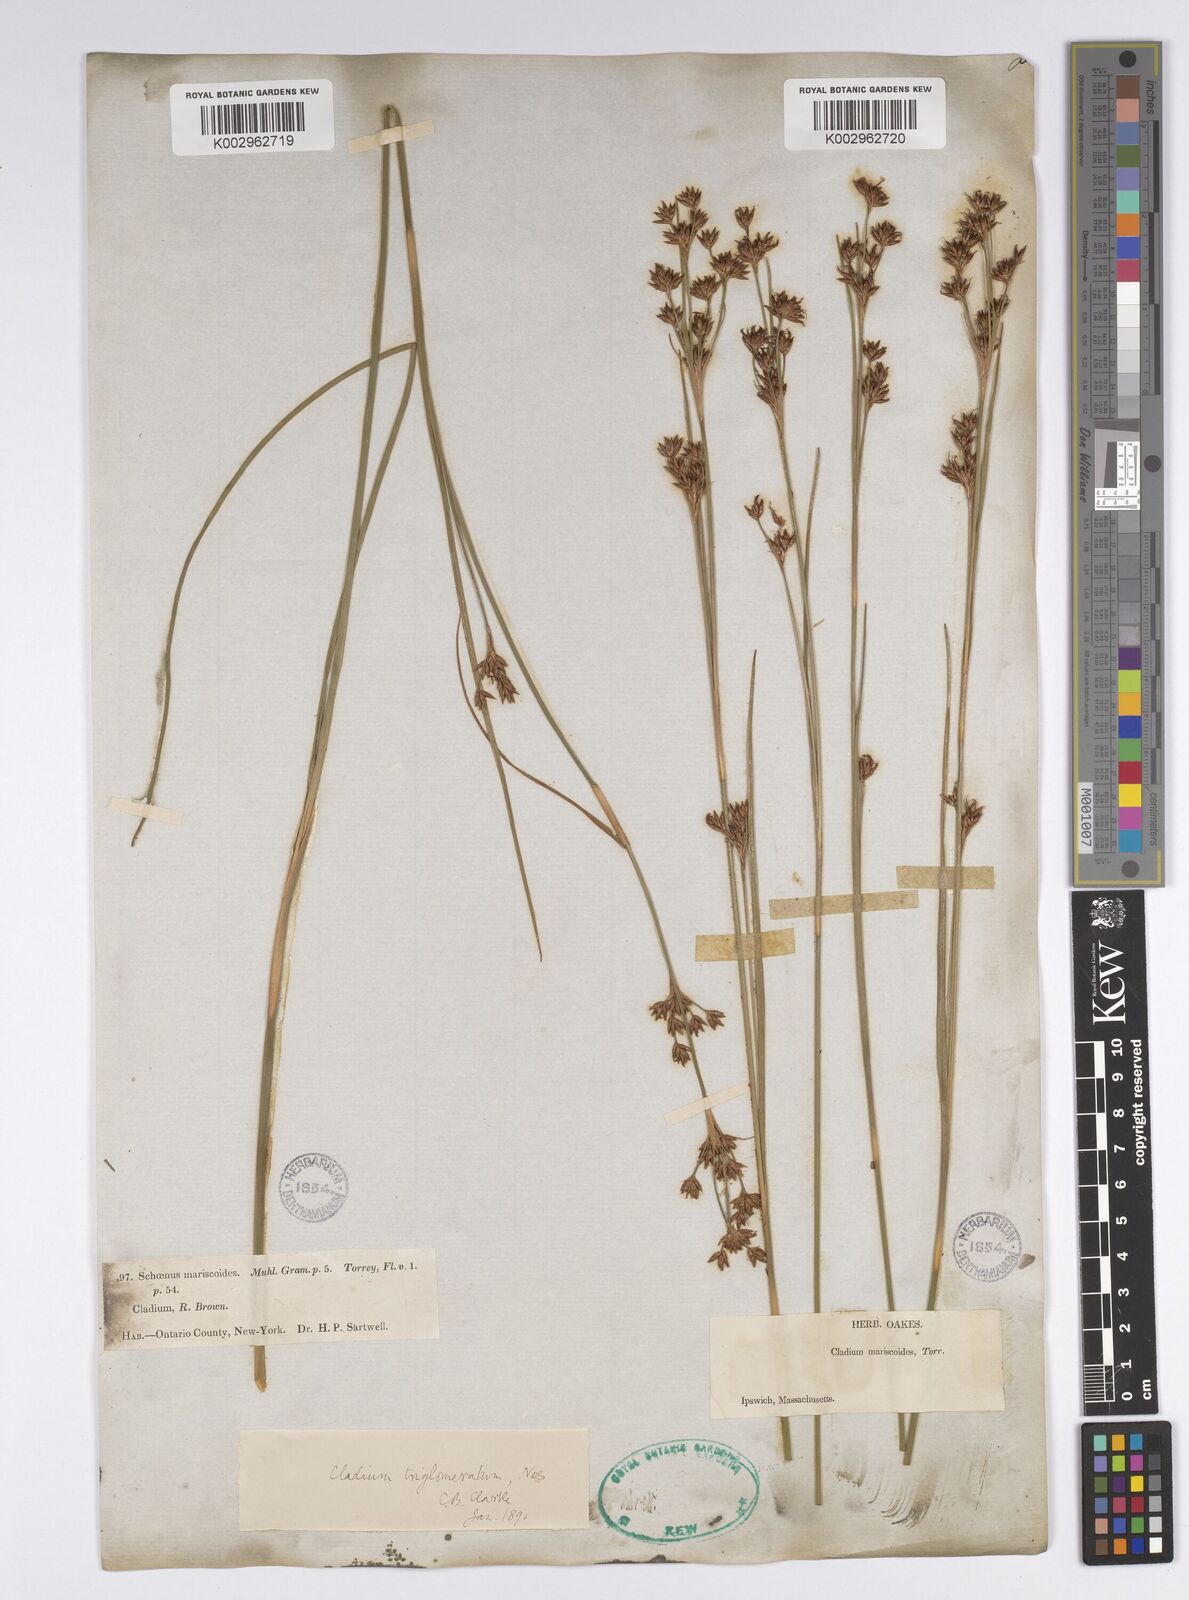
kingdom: Plantae
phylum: Tracheophyta
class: Liliopsida
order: Poales
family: Cyperaceae
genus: Cladium
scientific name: Cladium mariscoides
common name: Smooth sawgrass
